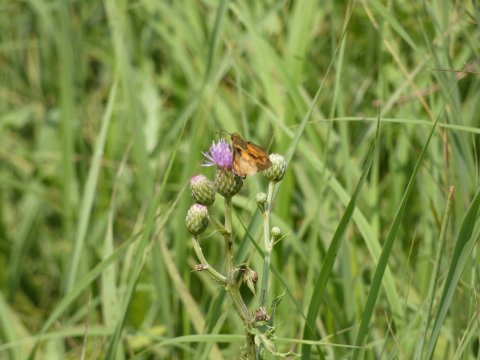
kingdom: Animalia
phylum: Arthropoda
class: Insecta
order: Lepidoptera
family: Hesperiidae
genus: Euphyes
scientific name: Euphyes dion
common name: Dion Skipper
